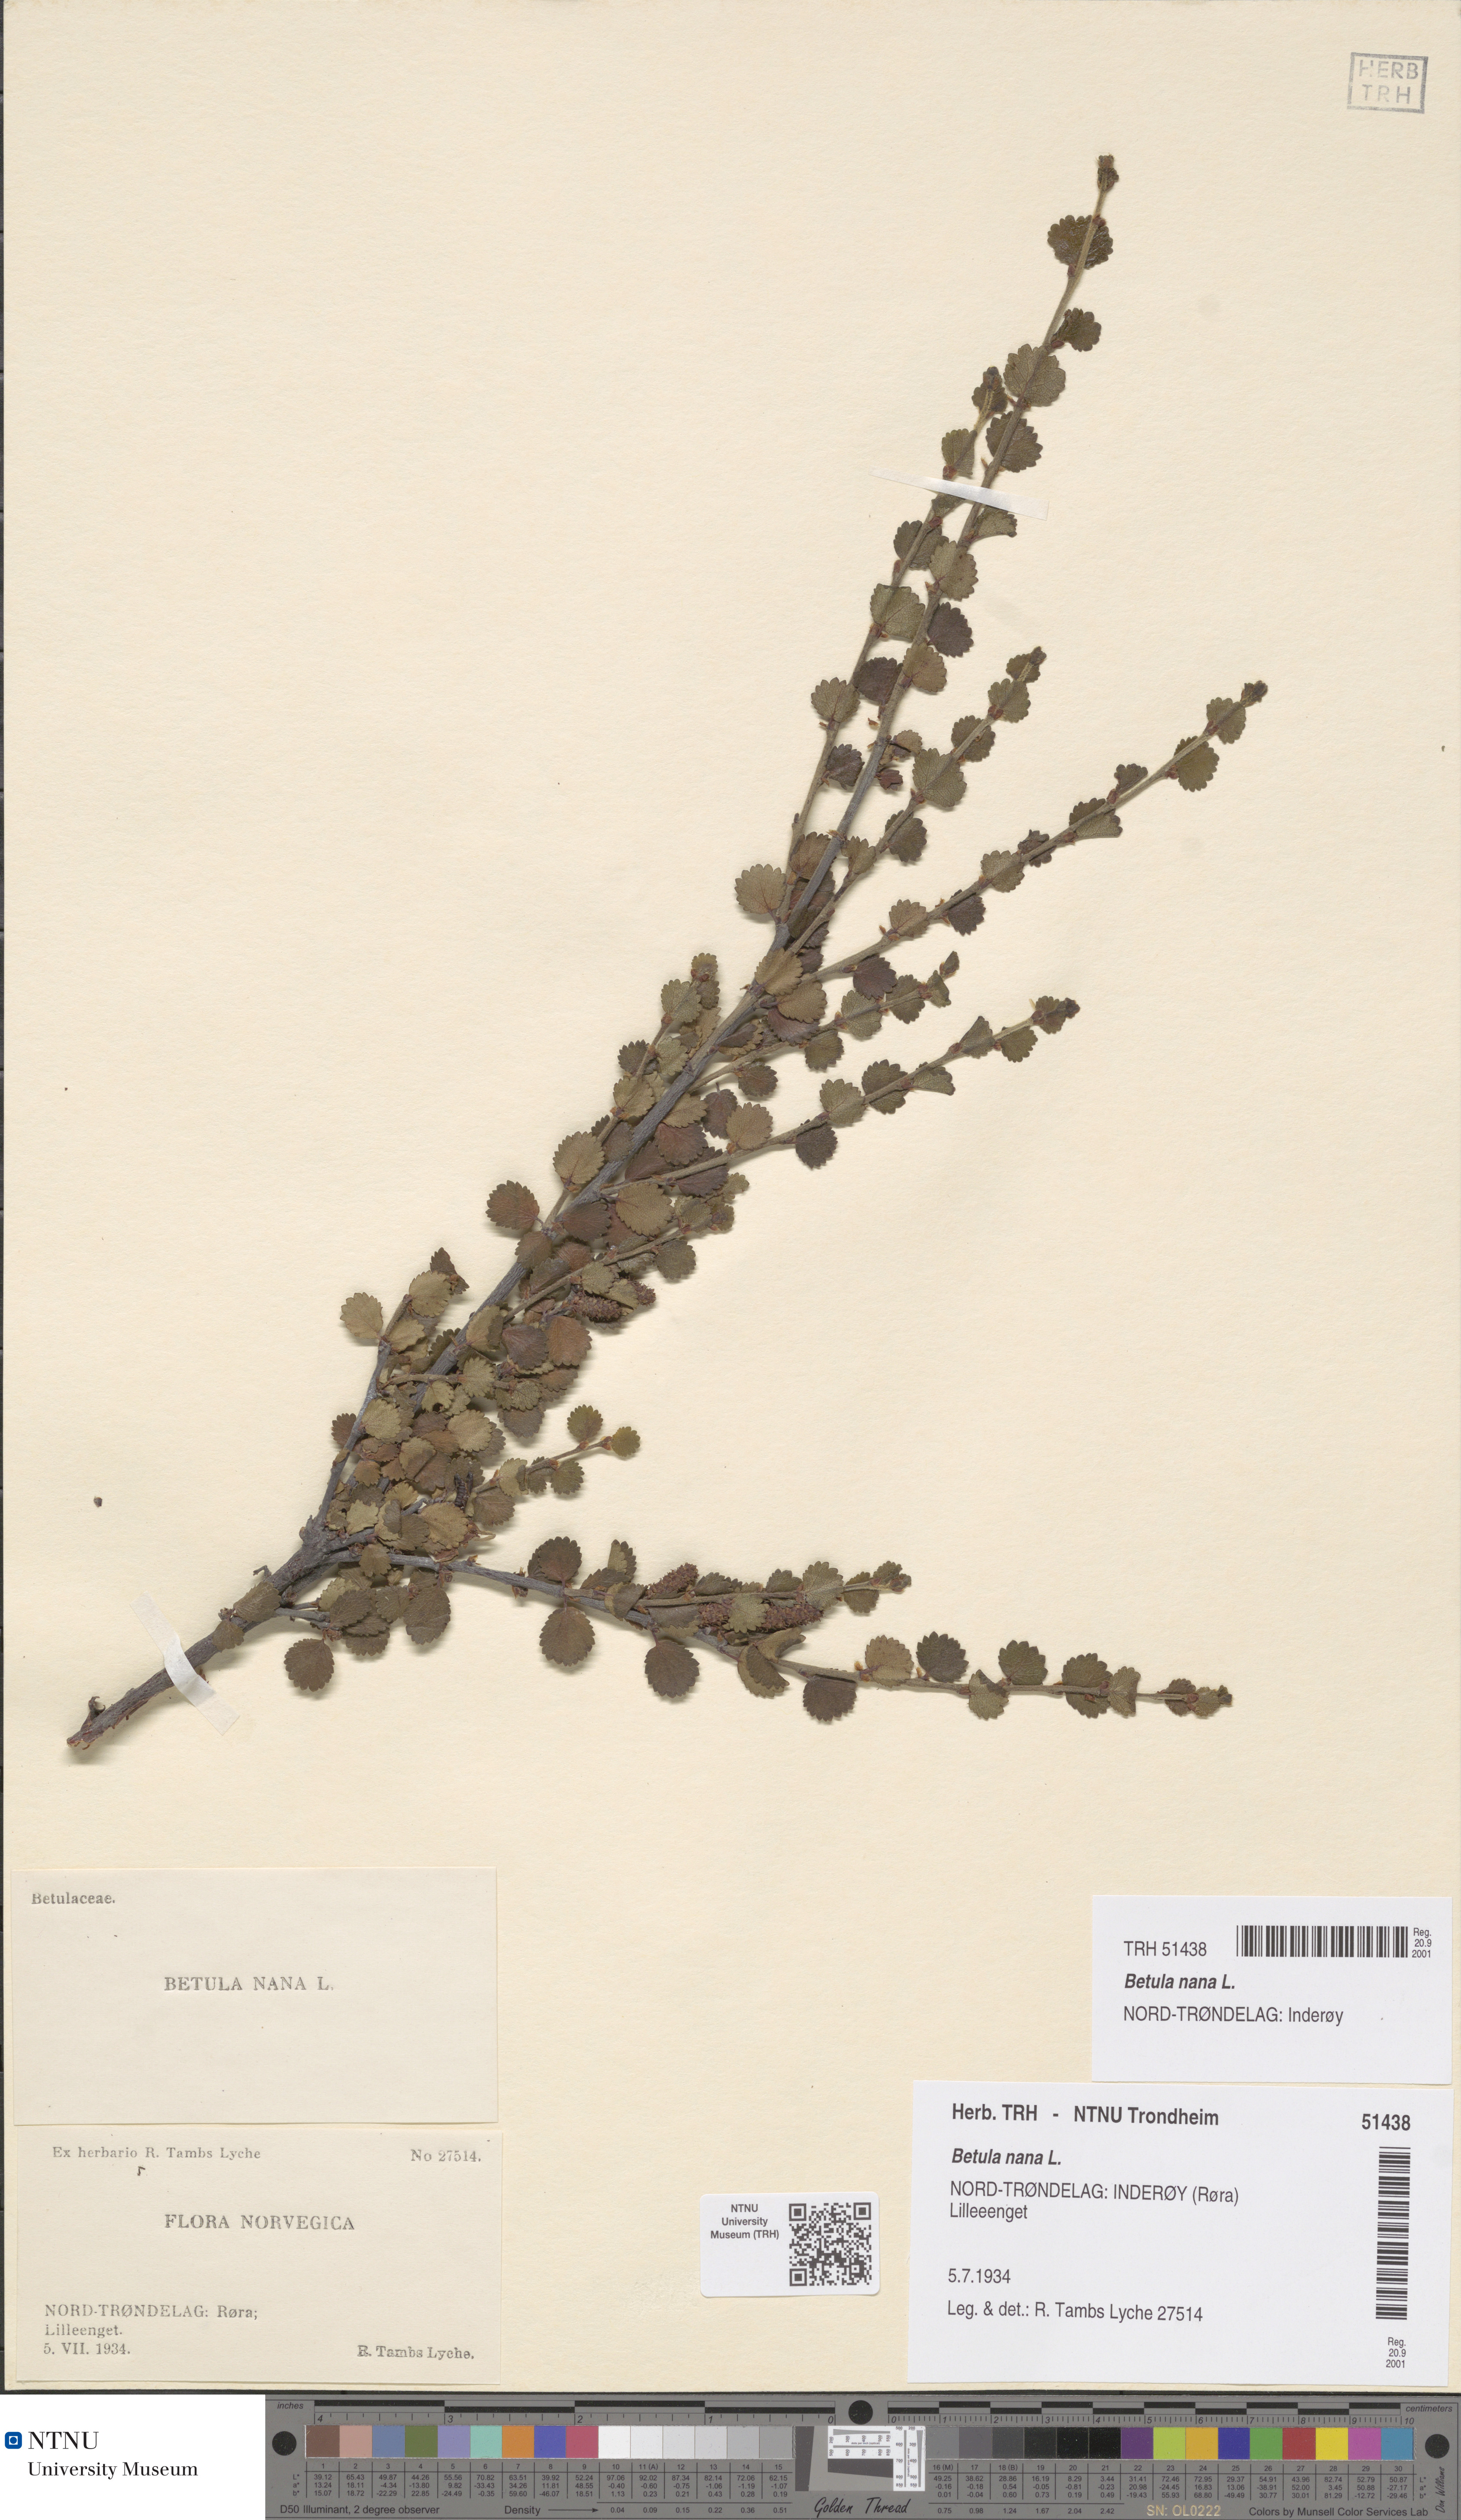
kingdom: Plantae
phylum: Tracheophyta
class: Magnoliopsida
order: Fagales
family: Betulaceae
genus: Betula
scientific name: Betula nana
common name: Arctic dwarf birch
